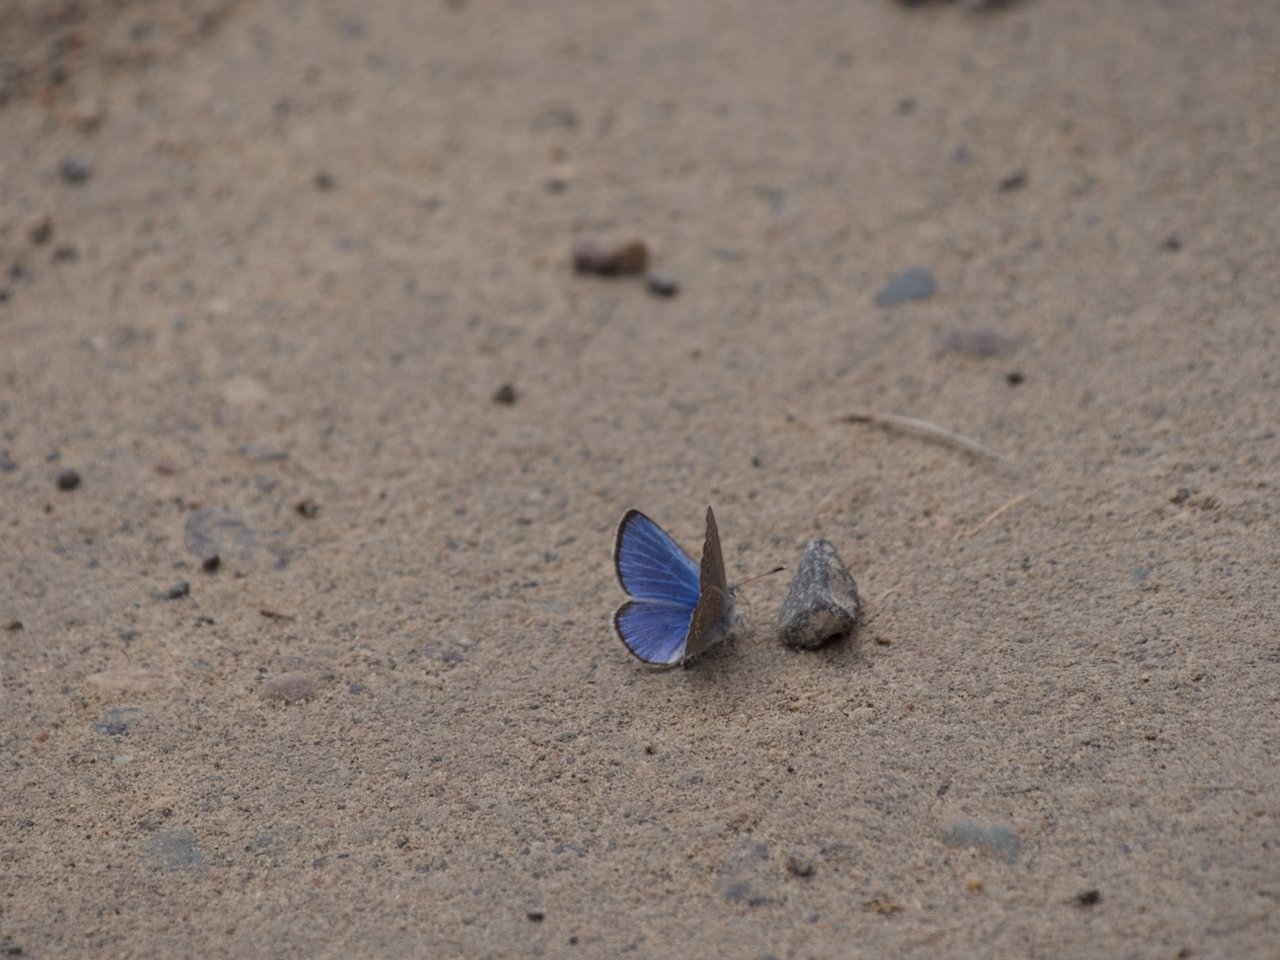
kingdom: Animalia
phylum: Arthropoda
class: Insecta
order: Lepidoptera
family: Lycaenidae
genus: Glaucopsyche
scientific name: Glaucopsyche lygdamus
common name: Silvery Blue
